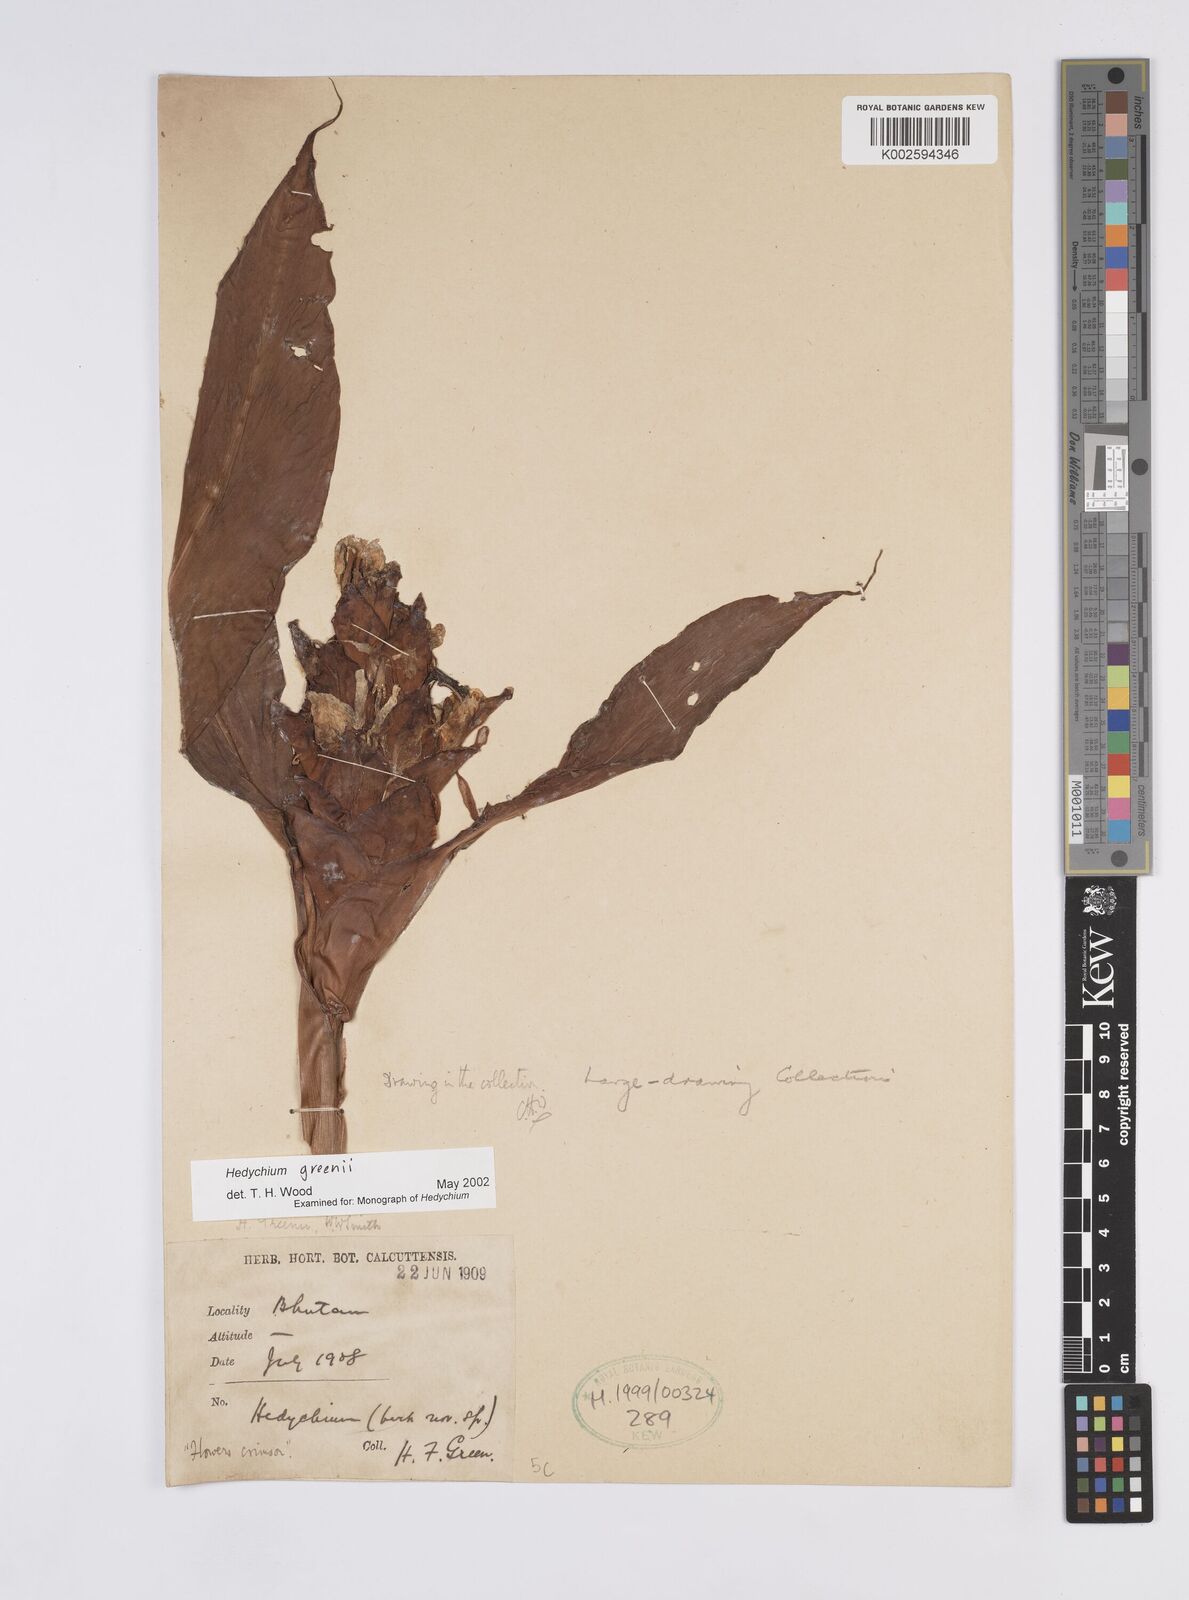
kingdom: Plantae
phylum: Tracheophyta
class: Liliopsida
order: Zingiberales
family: Zingiberaceae
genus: Hedychium
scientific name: Hedychium greenii
